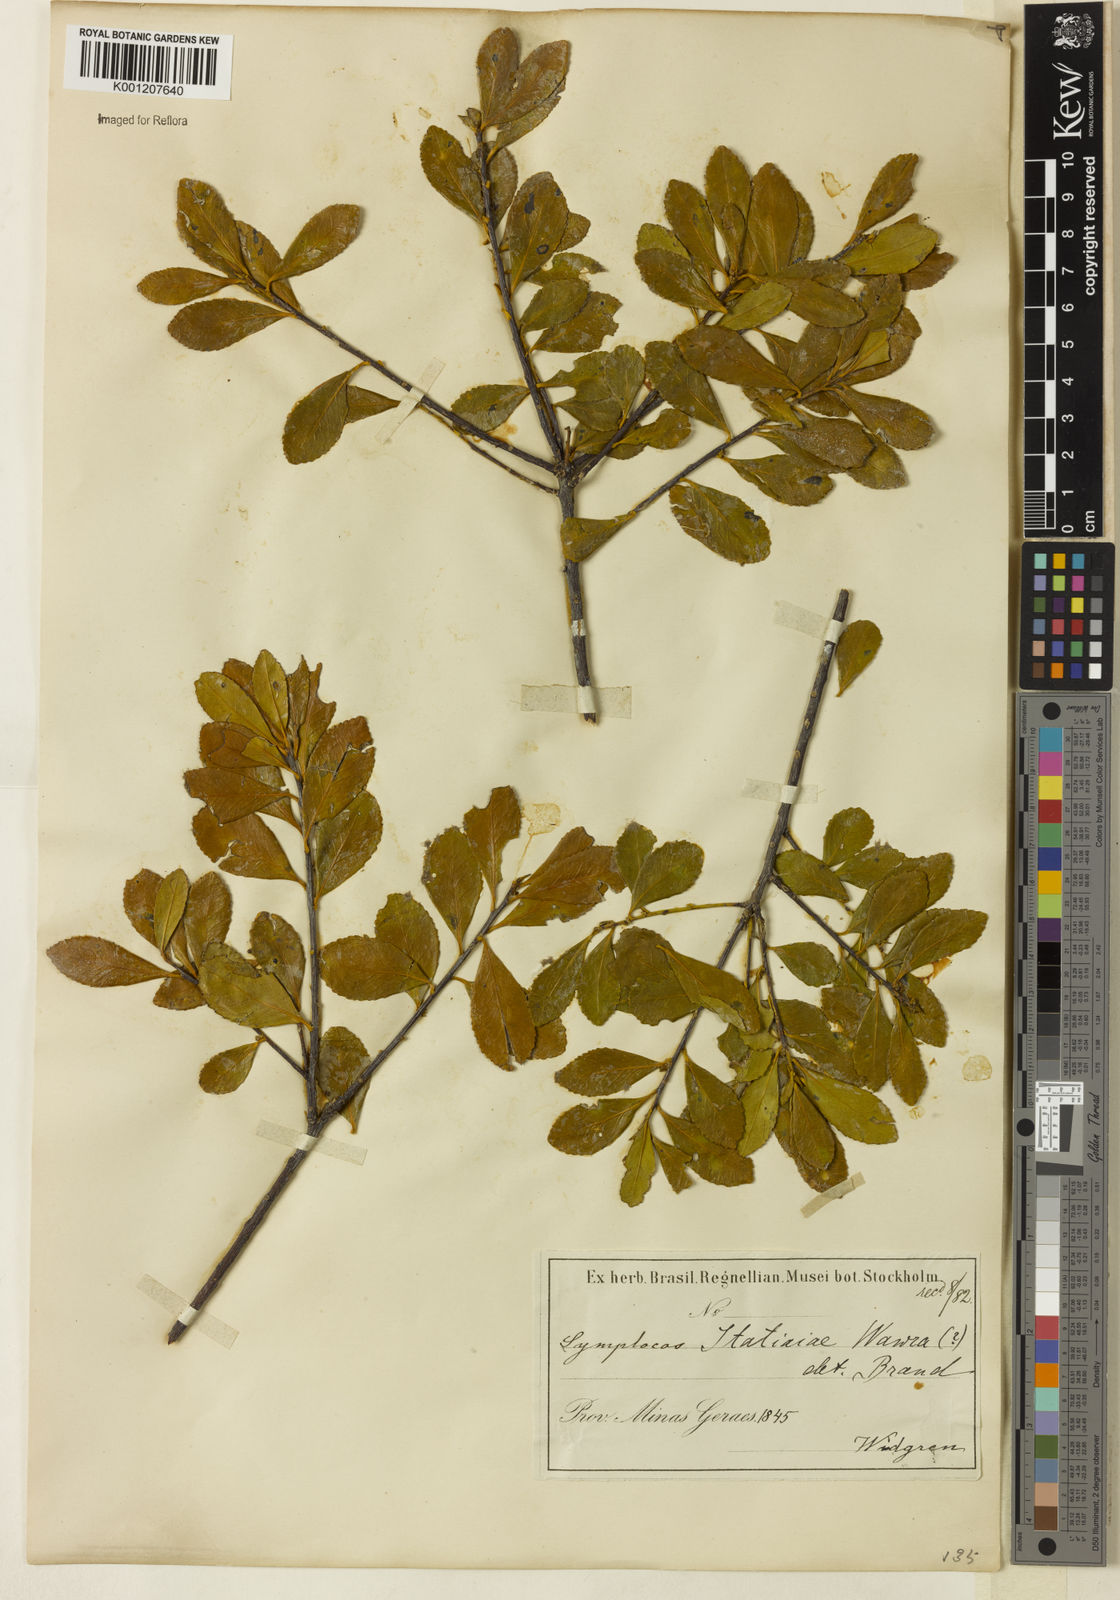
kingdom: Plantae
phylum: Tracheophyta
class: Magnoliopsida
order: Ericales
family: Symplocaceae
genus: Symplocos
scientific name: Symplocos itatiaiae
